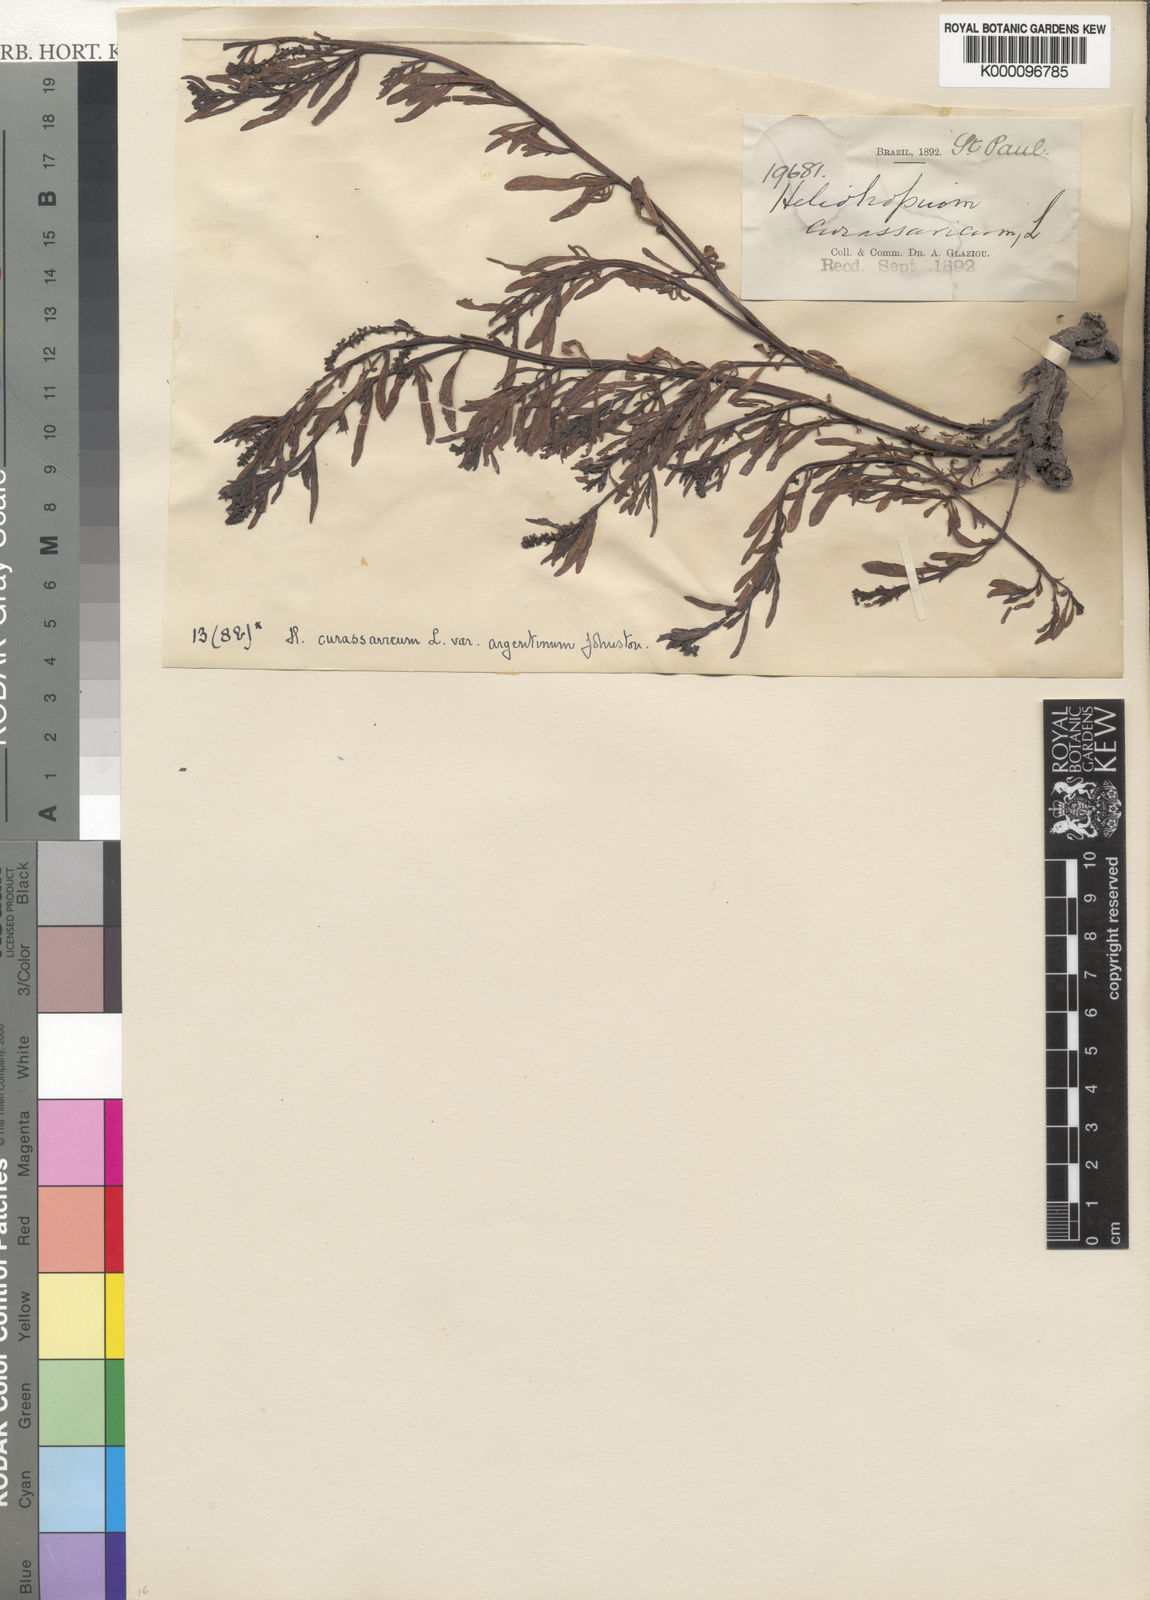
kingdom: Plantae
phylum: Tracheophyta
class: Magnoliopsida
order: Boraginales
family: Heliotropiaceae
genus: Heliotropium
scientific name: Heliotropium curassavicum
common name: Seaside heliotrope
